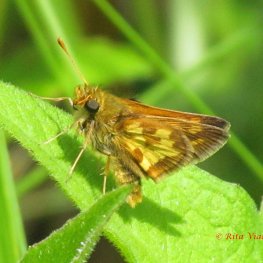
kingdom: Animalia
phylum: Arthropoda
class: Insecta
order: Lepidoptera
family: Hesperiidae
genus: Polites
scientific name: Polites coras
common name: Peck's Skipper
